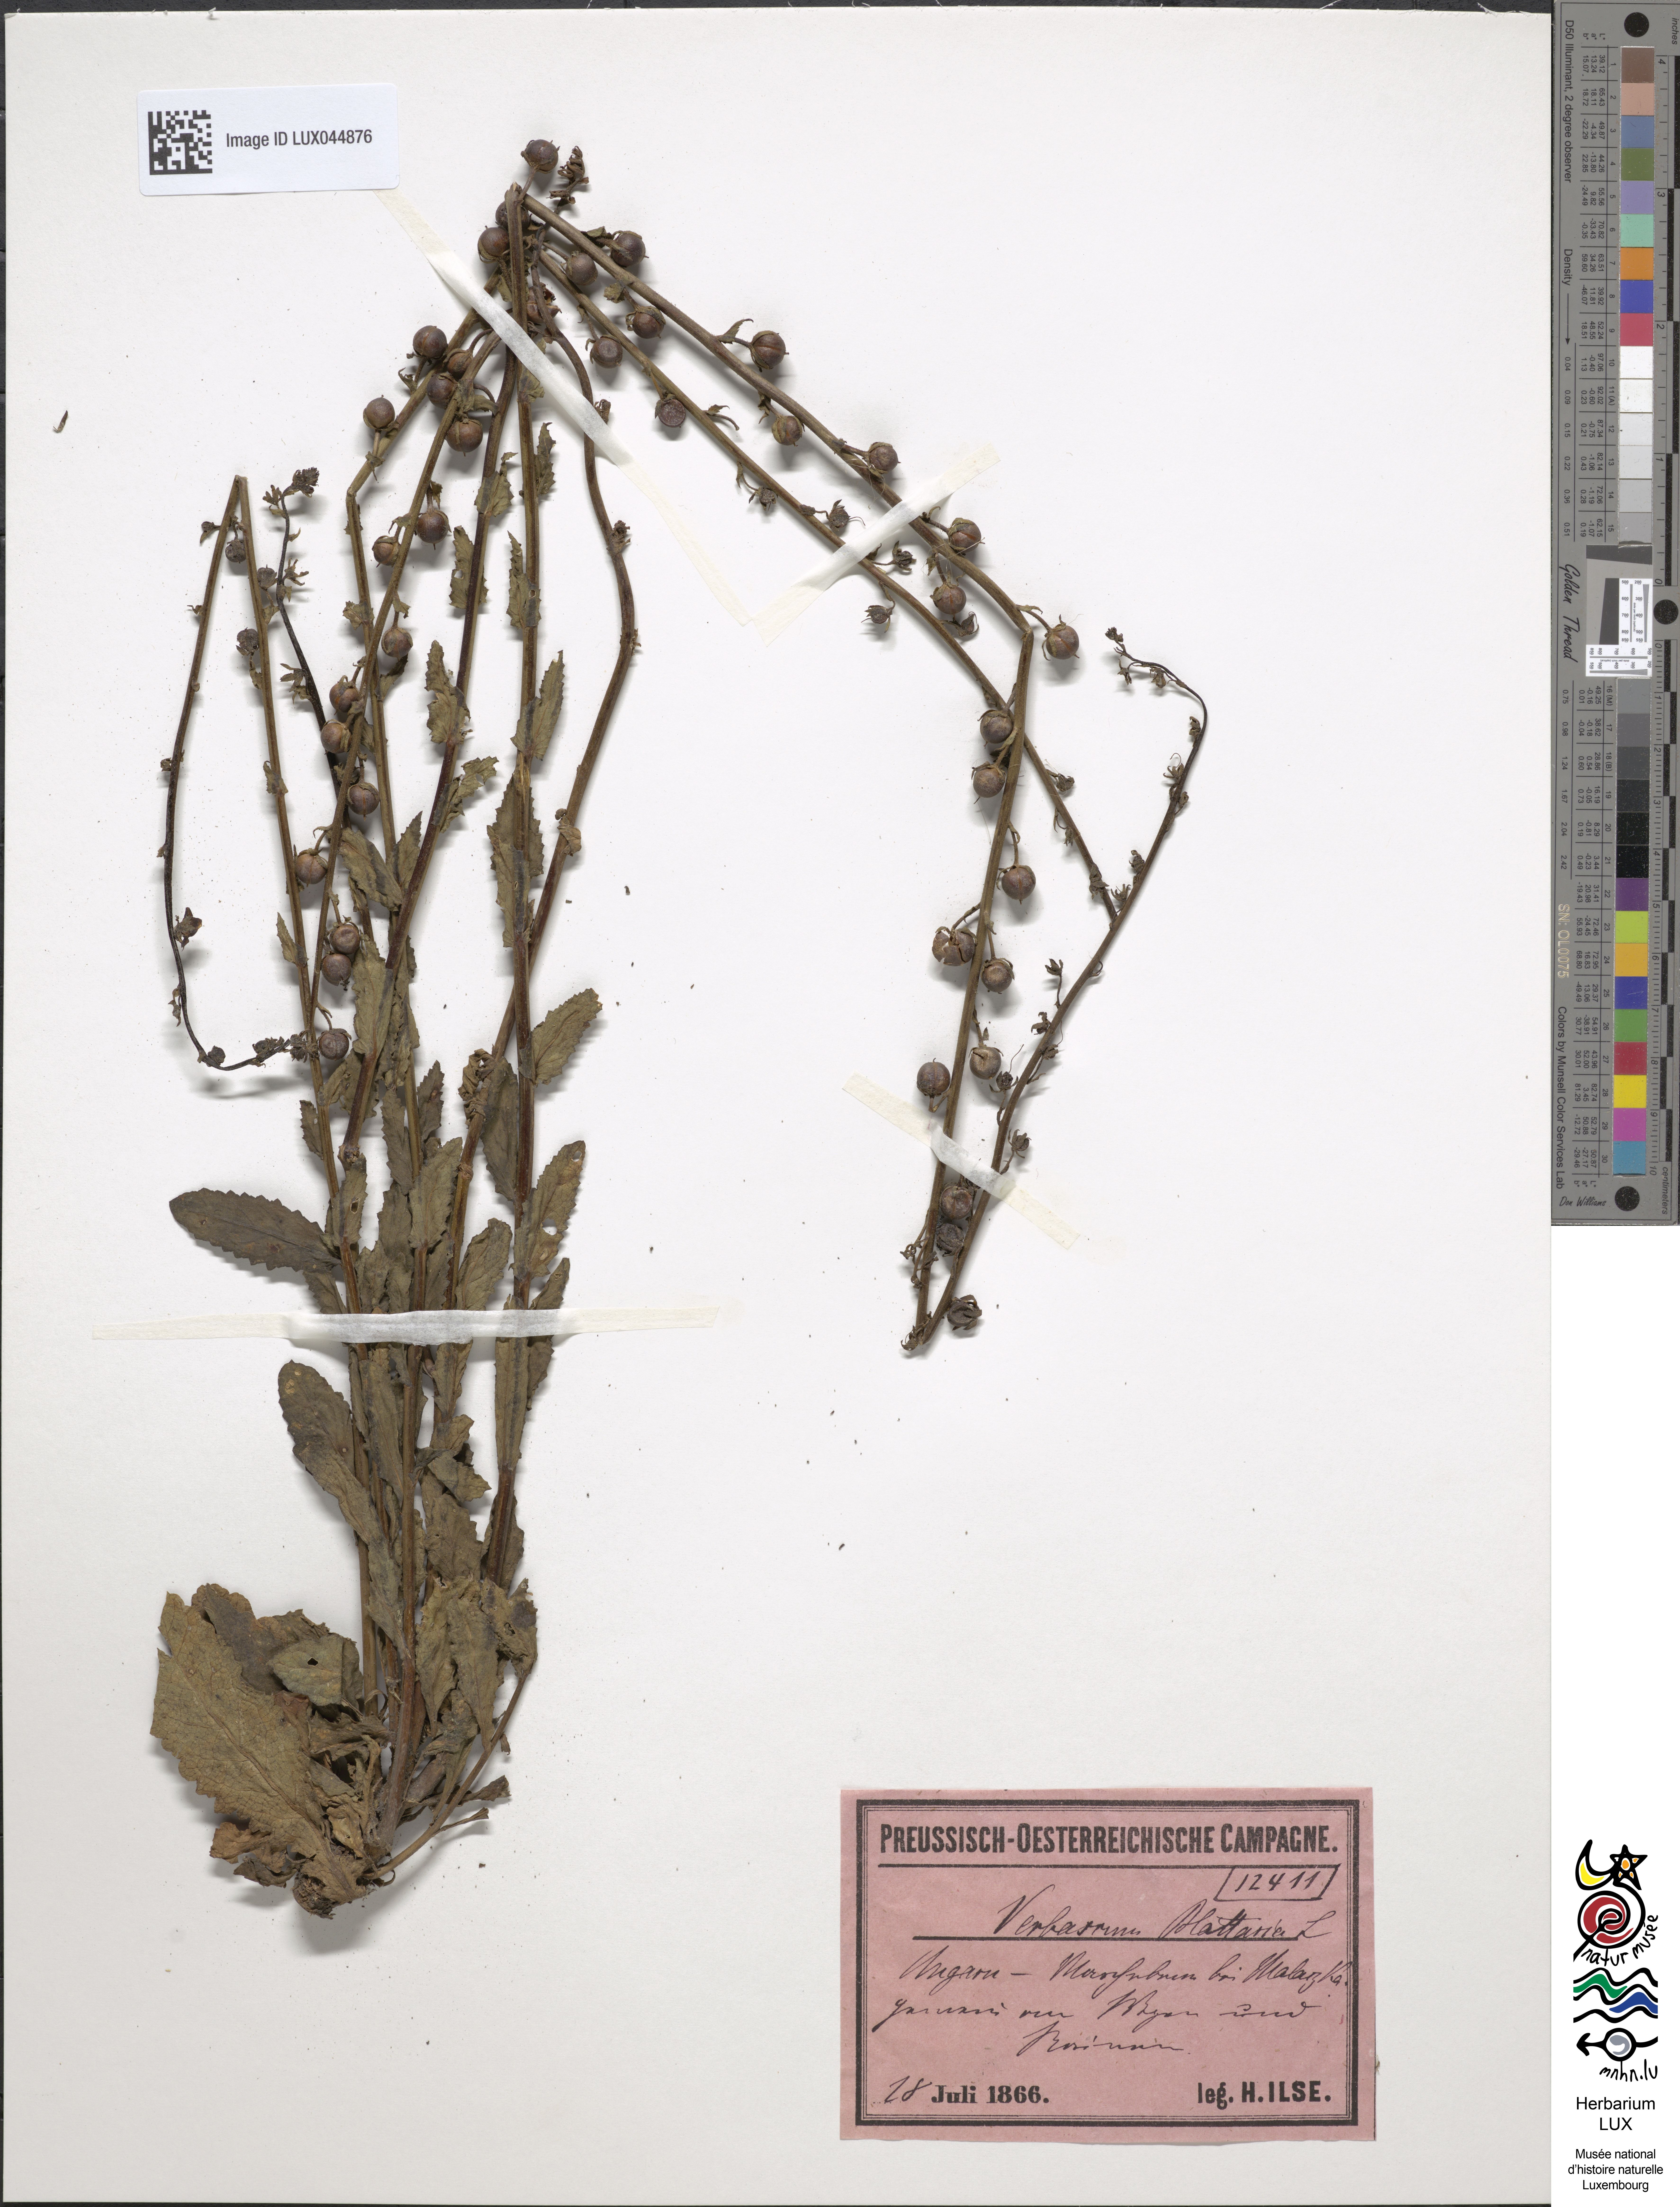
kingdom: Plantae
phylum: Tracheophyta
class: Magnoliopsida
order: Lamiales
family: Scrophulariaceae
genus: Verbascum
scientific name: Verbascum blattaria
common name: Moth mullein
